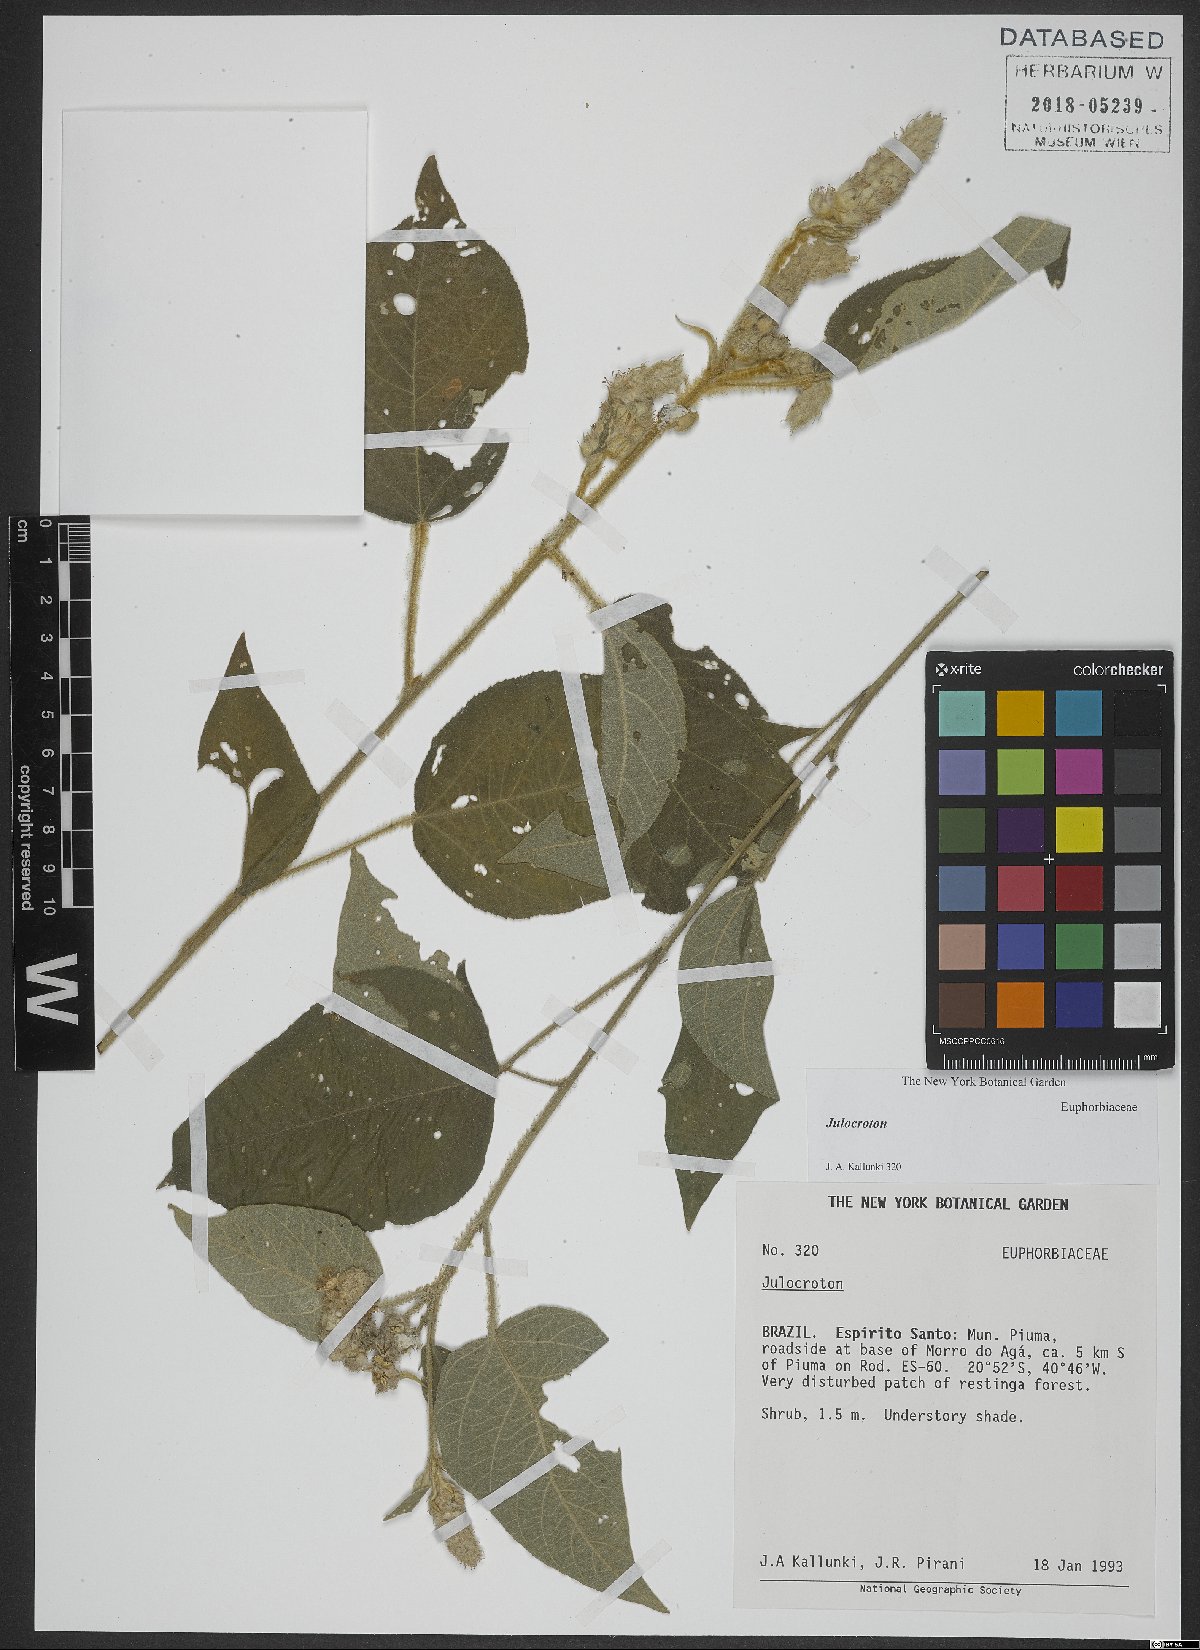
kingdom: Plantae
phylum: Tracheophyta
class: Magnoliopsida
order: Malpighiales
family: Euphorbiaceae
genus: Croton
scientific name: Croton
